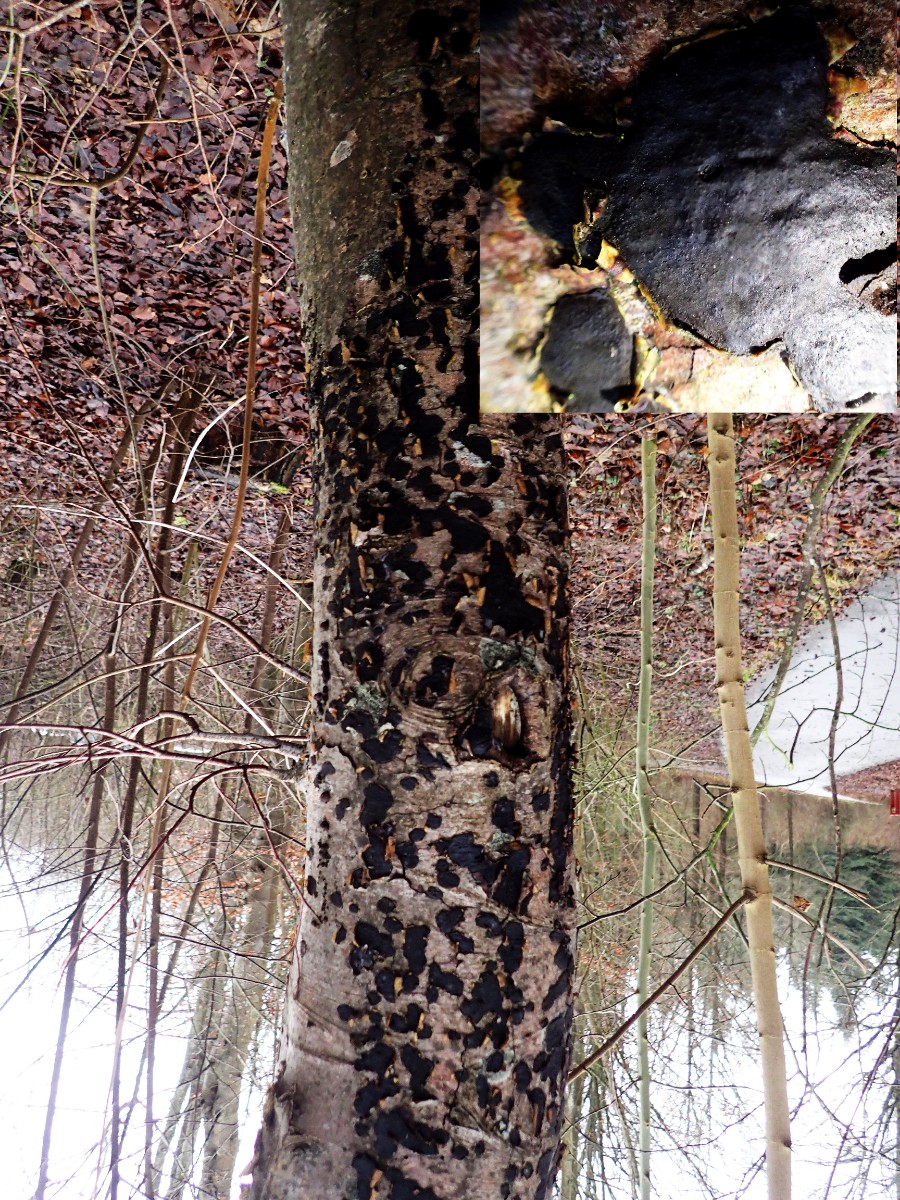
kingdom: Fungi
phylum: Ascomycota
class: Sordariomycetes
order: Xylariales
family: Graphostromataceae
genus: Biscogniauxia
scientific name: Biscogniauxia nummularia
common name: bøge-kulskive
